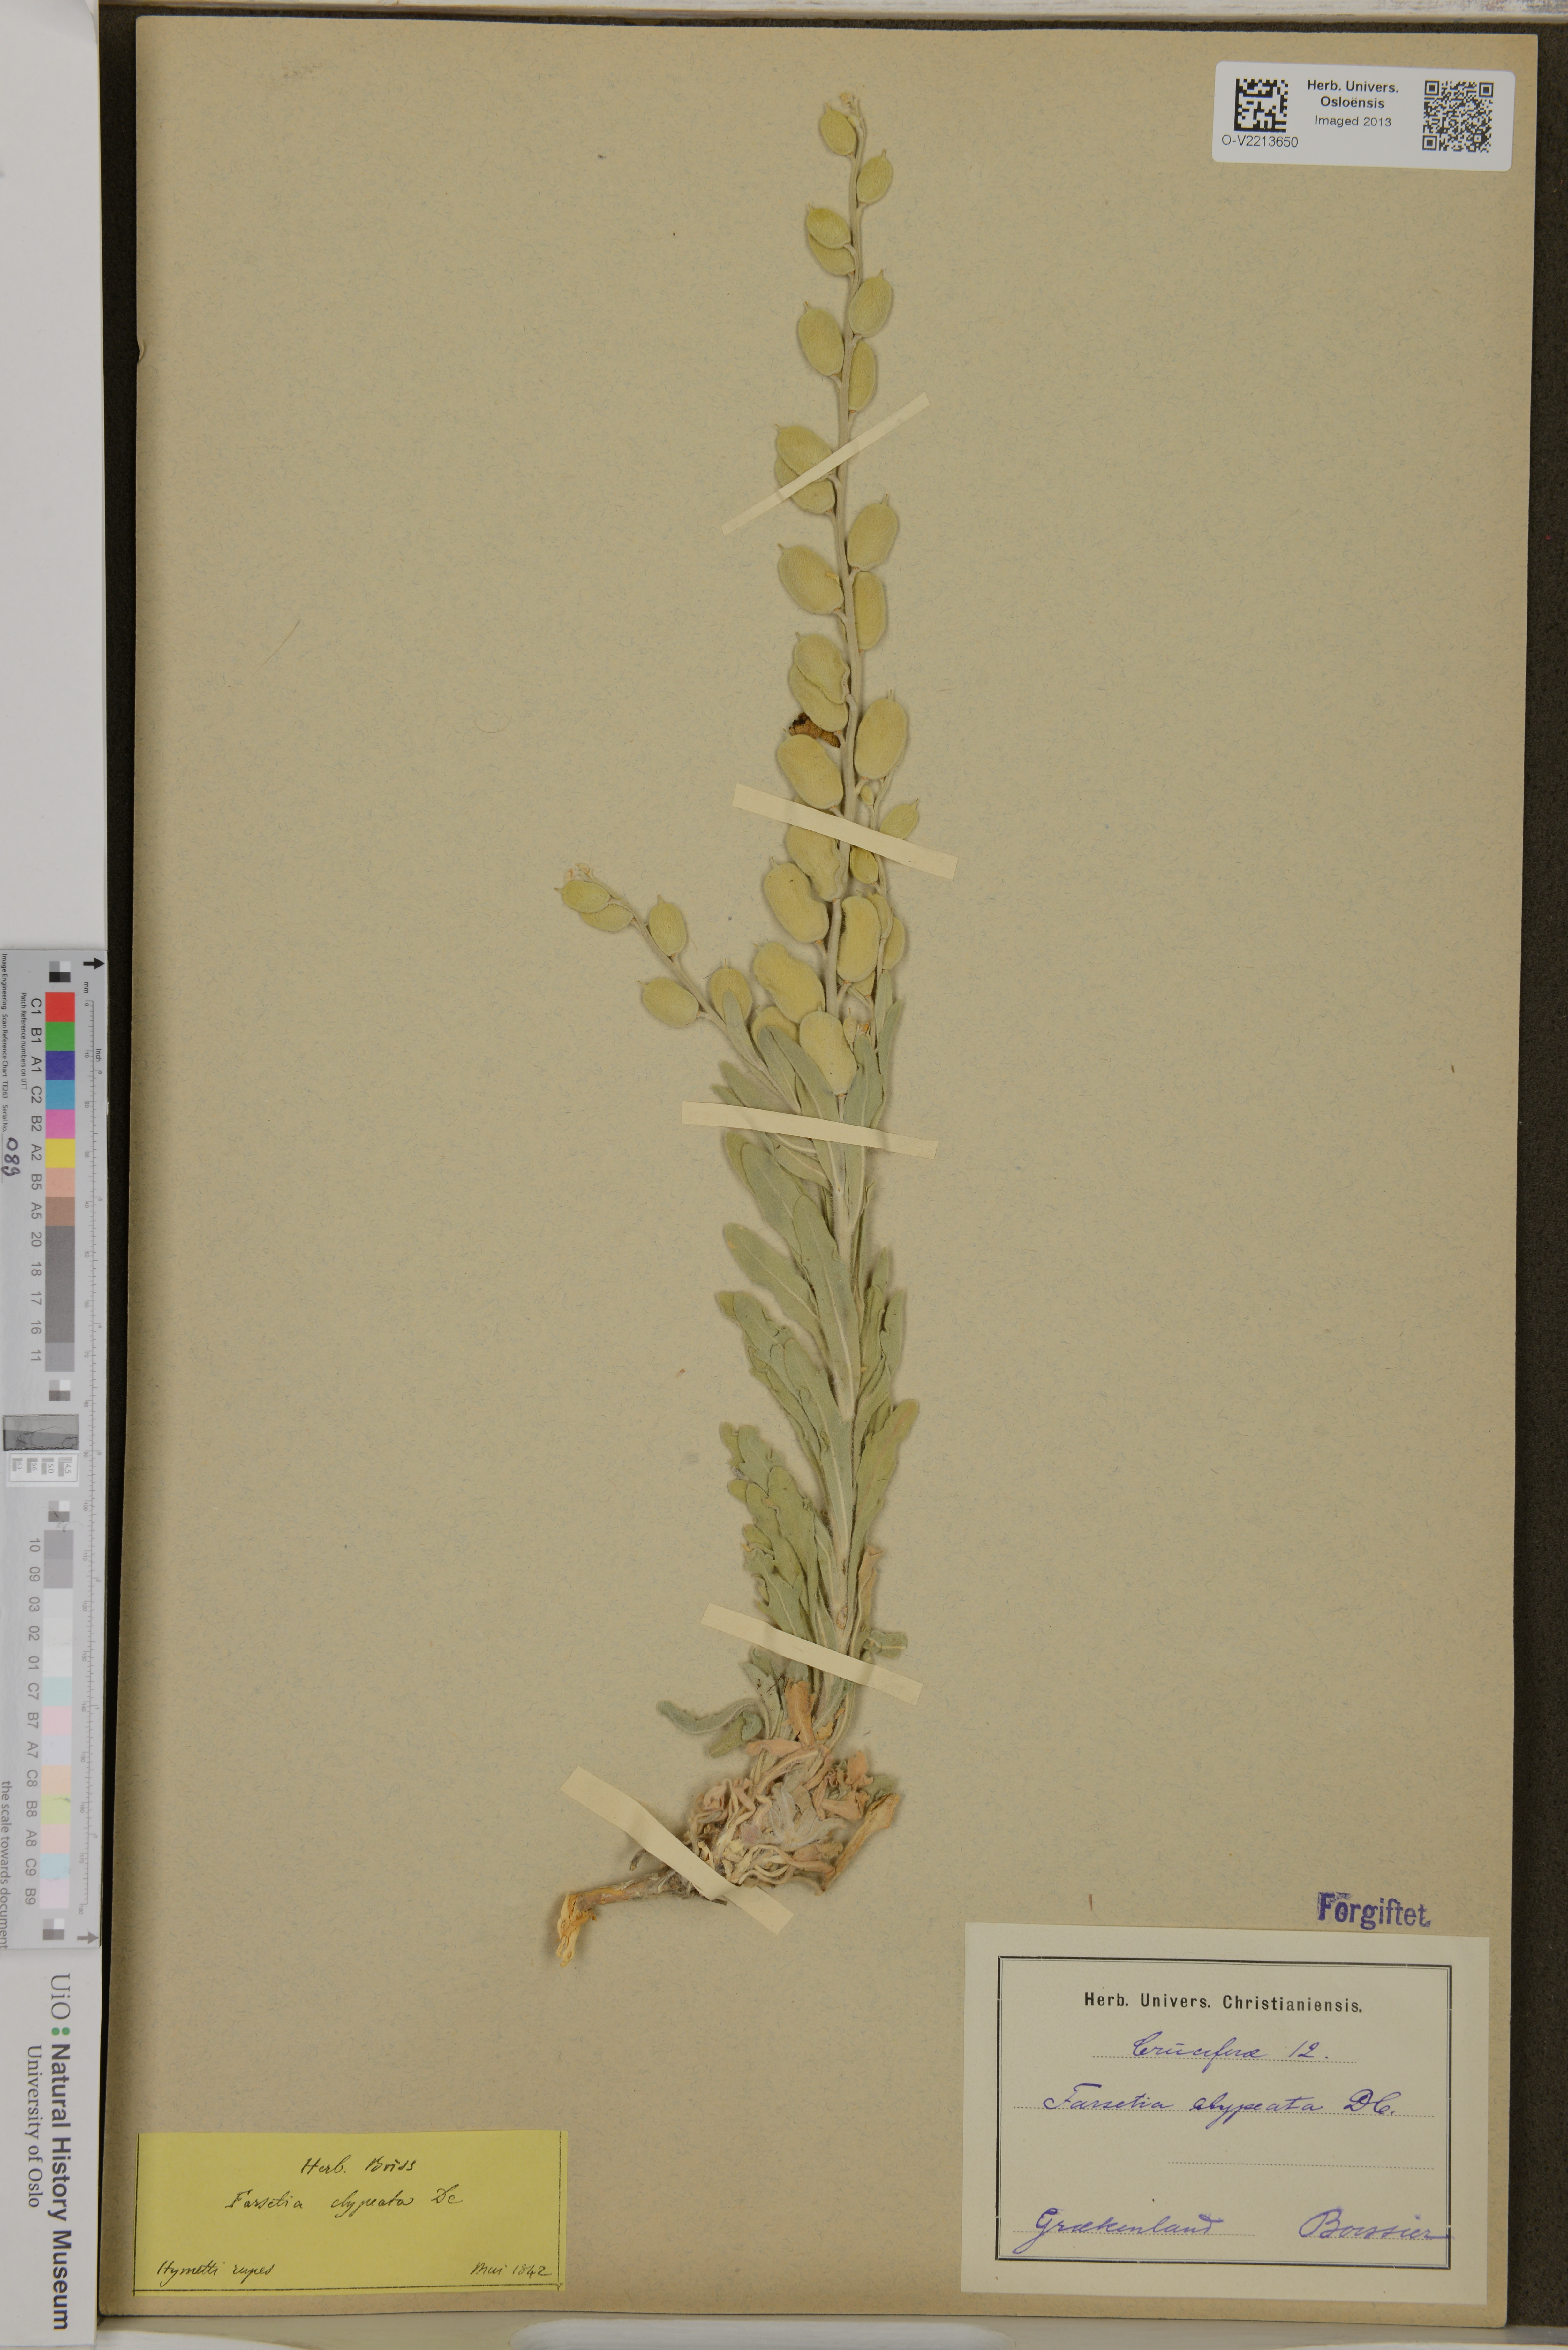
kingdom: Plantae
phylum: Tracheophyta
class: Magnoliopsida
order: Brassicales
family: Brassicaceae
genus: Fibigia
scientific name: Fibigia clypeata
